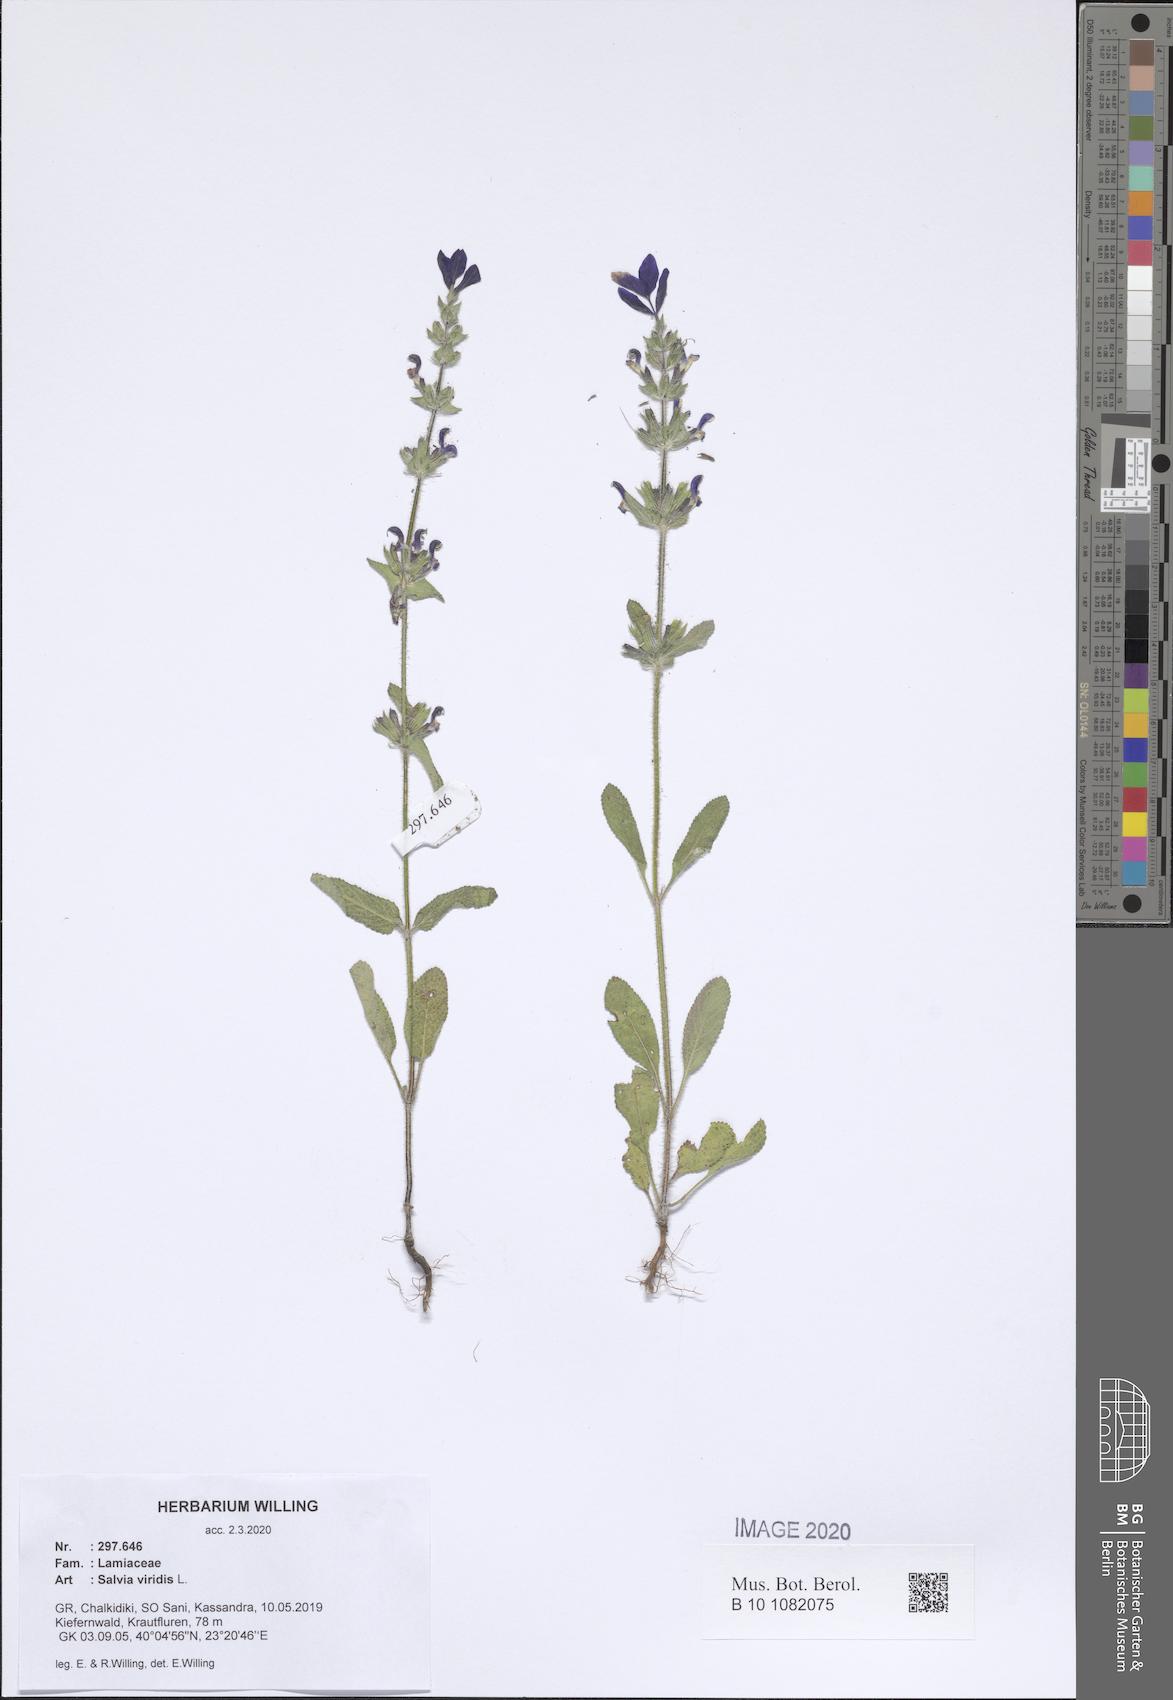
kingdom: Plantae
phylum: Tracheophyta
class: Magnoliopsida
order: Lamiales
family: Lamiaceae
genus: Salvia
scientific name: Salvia viridis
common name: Annual clary
